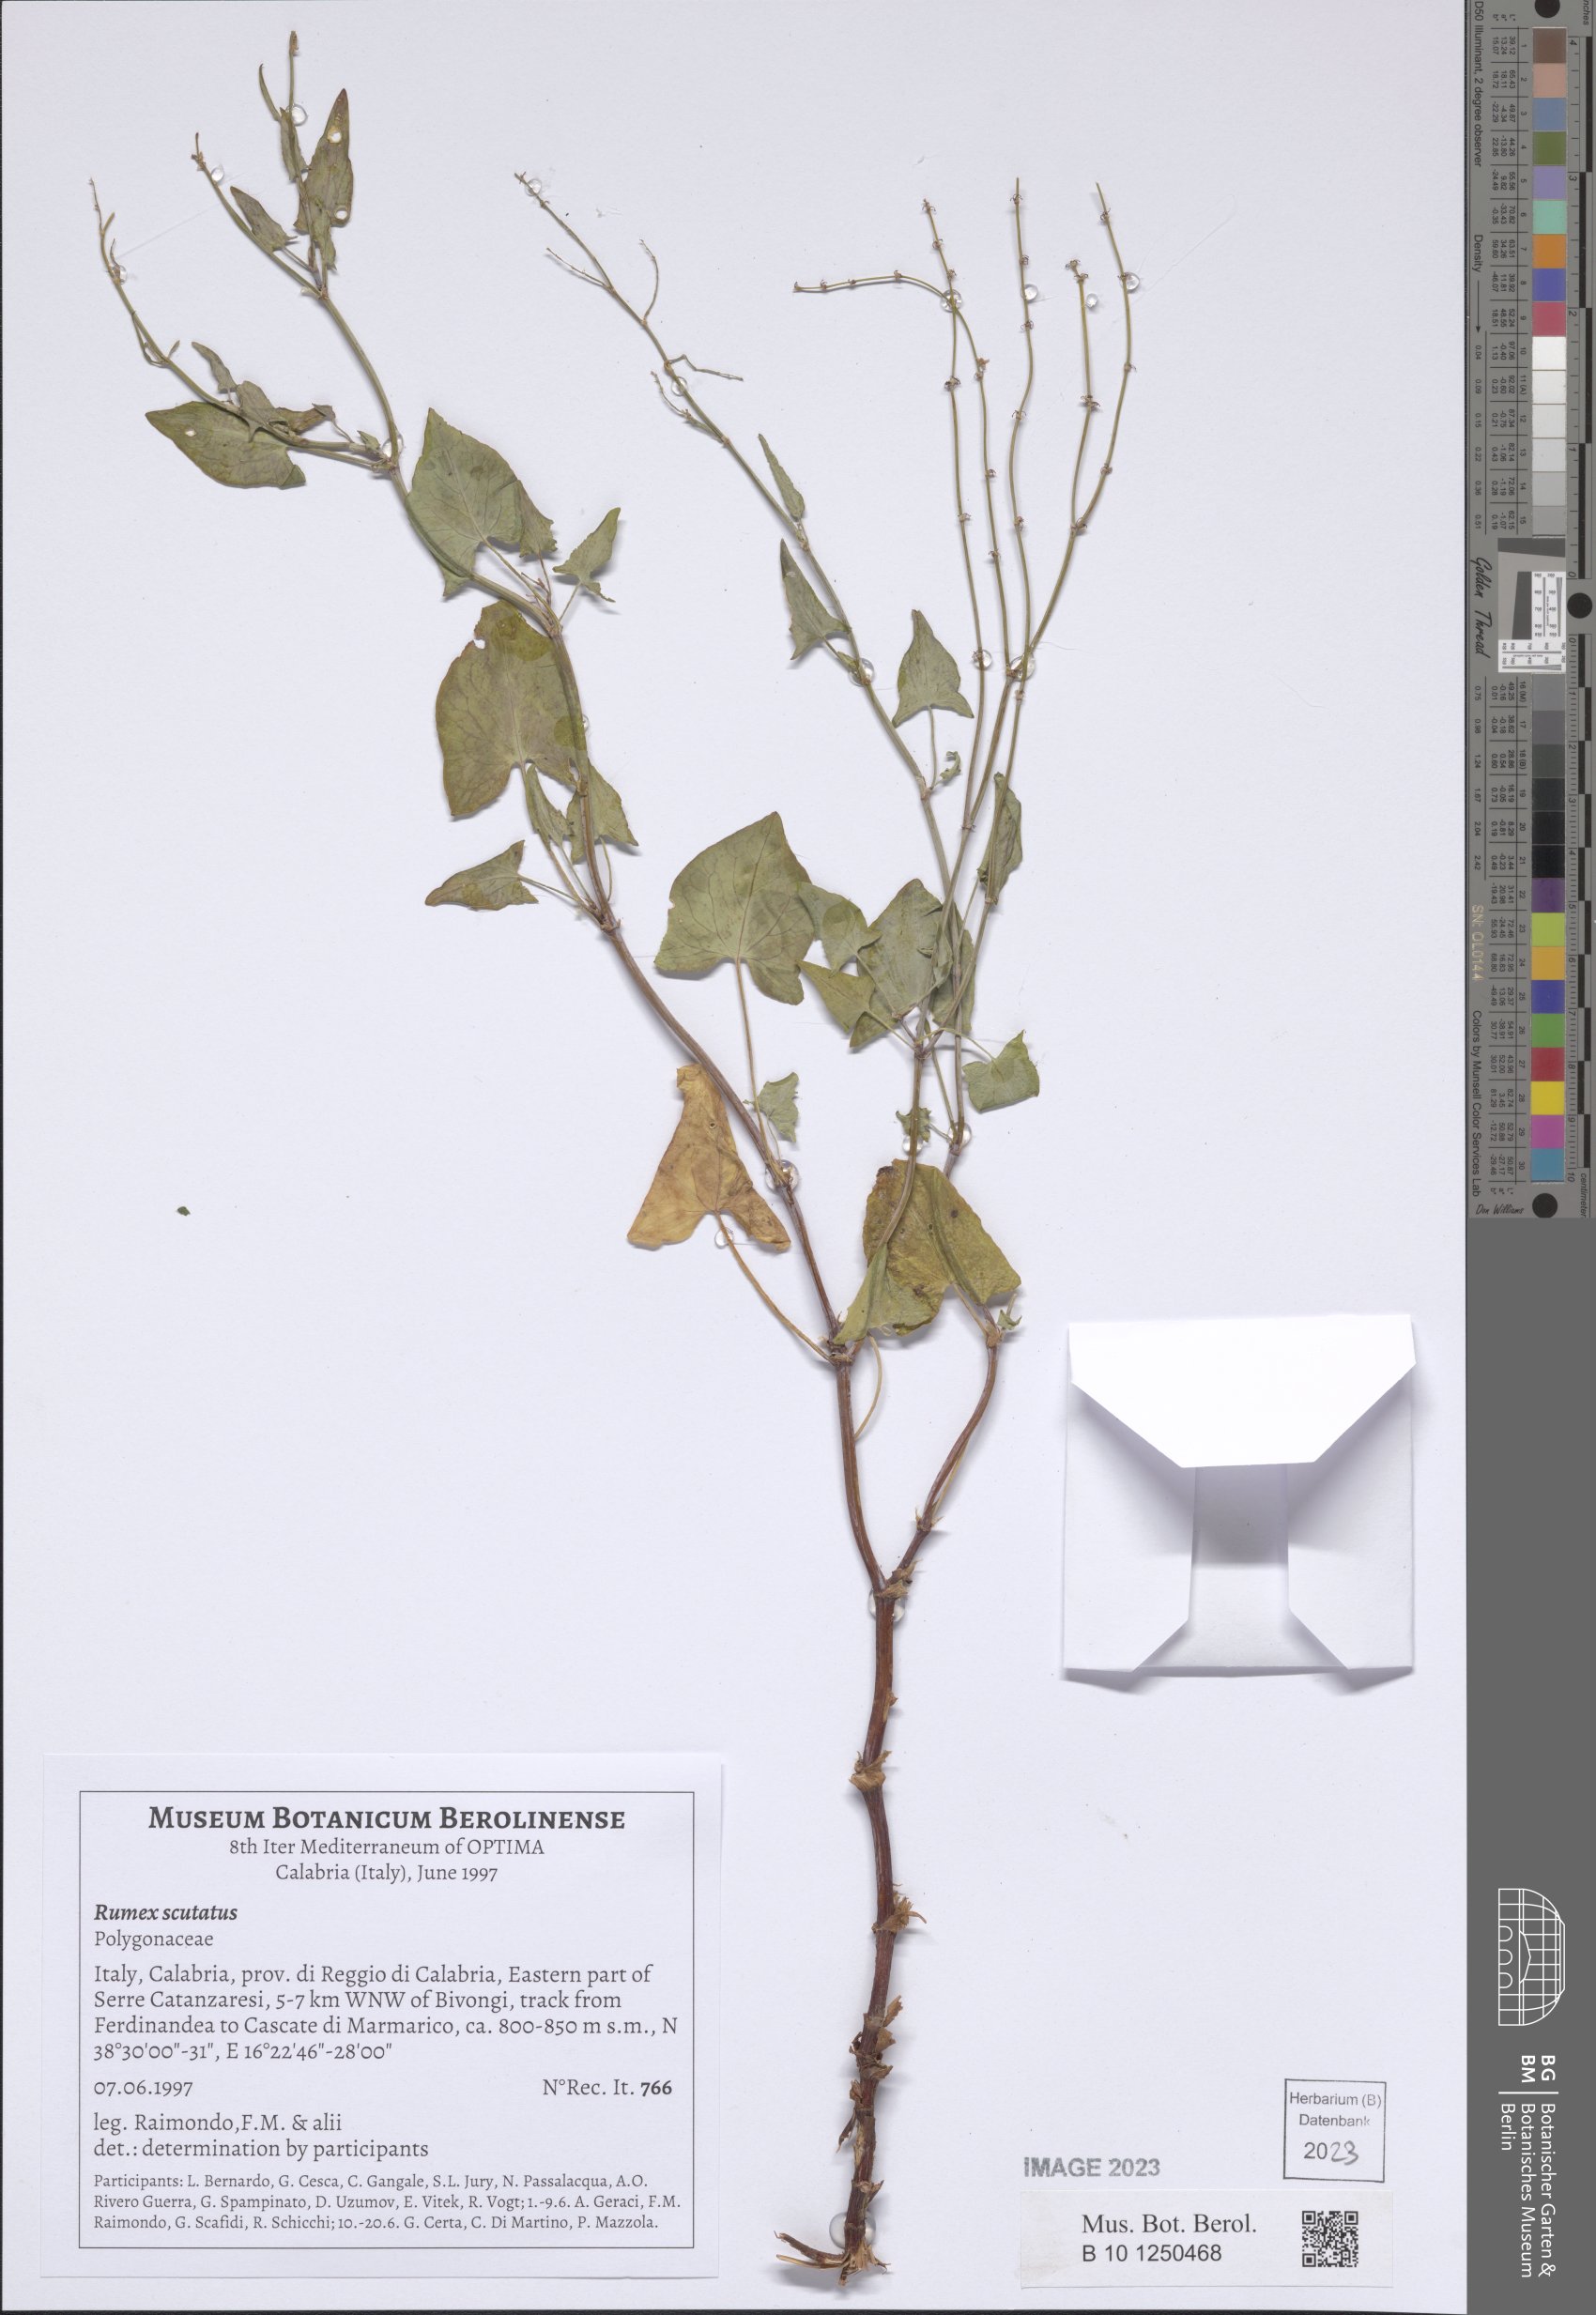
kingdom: Plantae
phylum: Tracheophyta
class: Magnoliopsida
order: Caryophyllales
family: Polygonaceae
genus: Rumex
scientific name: Rumex scutatus
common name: French sorrel
